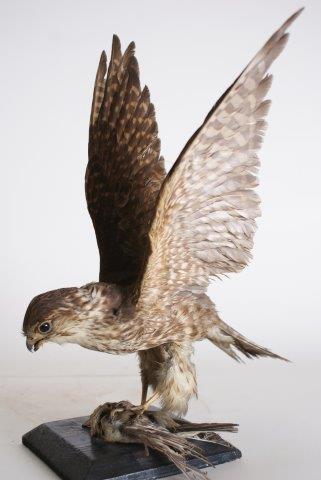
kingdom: Animalia
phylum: Chordata
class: Aves
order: Falconiformes
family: Falconidae
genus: Falco
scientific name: Falco columbarius
